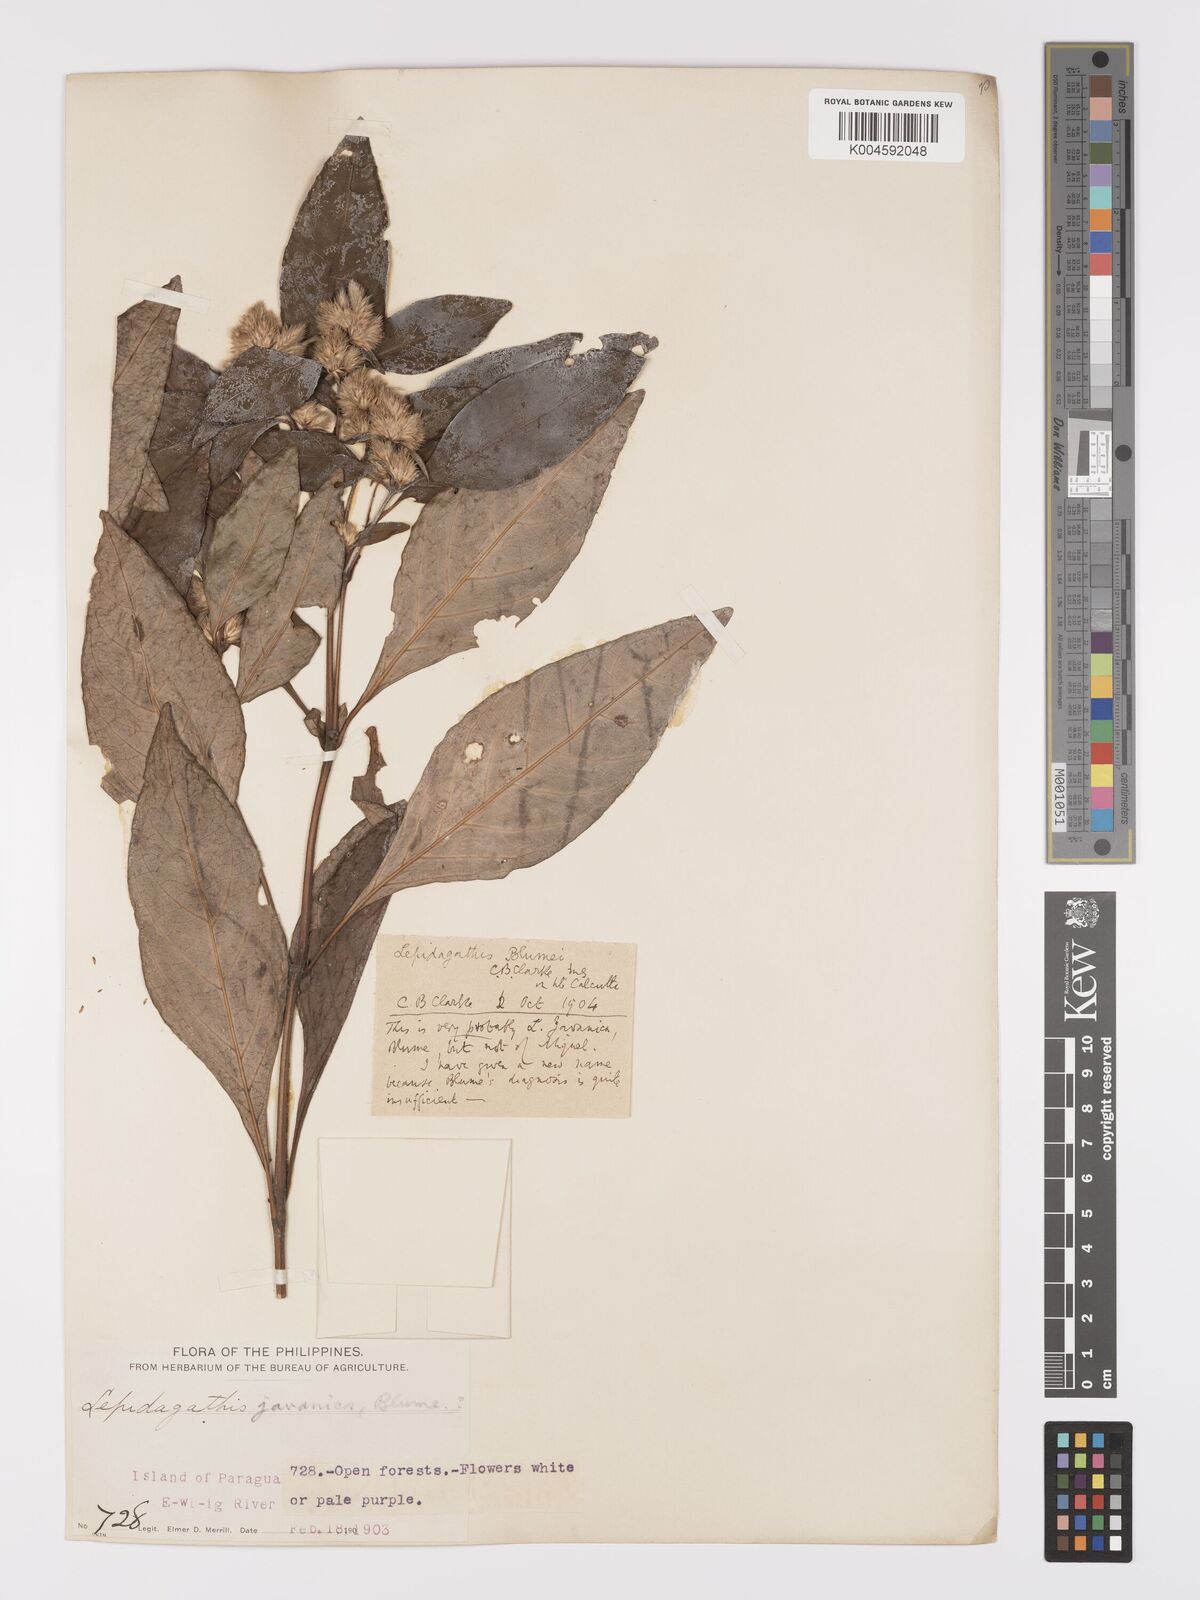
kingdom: Plantae
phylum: Tracheophyta
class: Magnoliopsida
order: Lamiales
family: Acanthaceae
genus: Lepidagathis
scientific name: Lepidagathis
